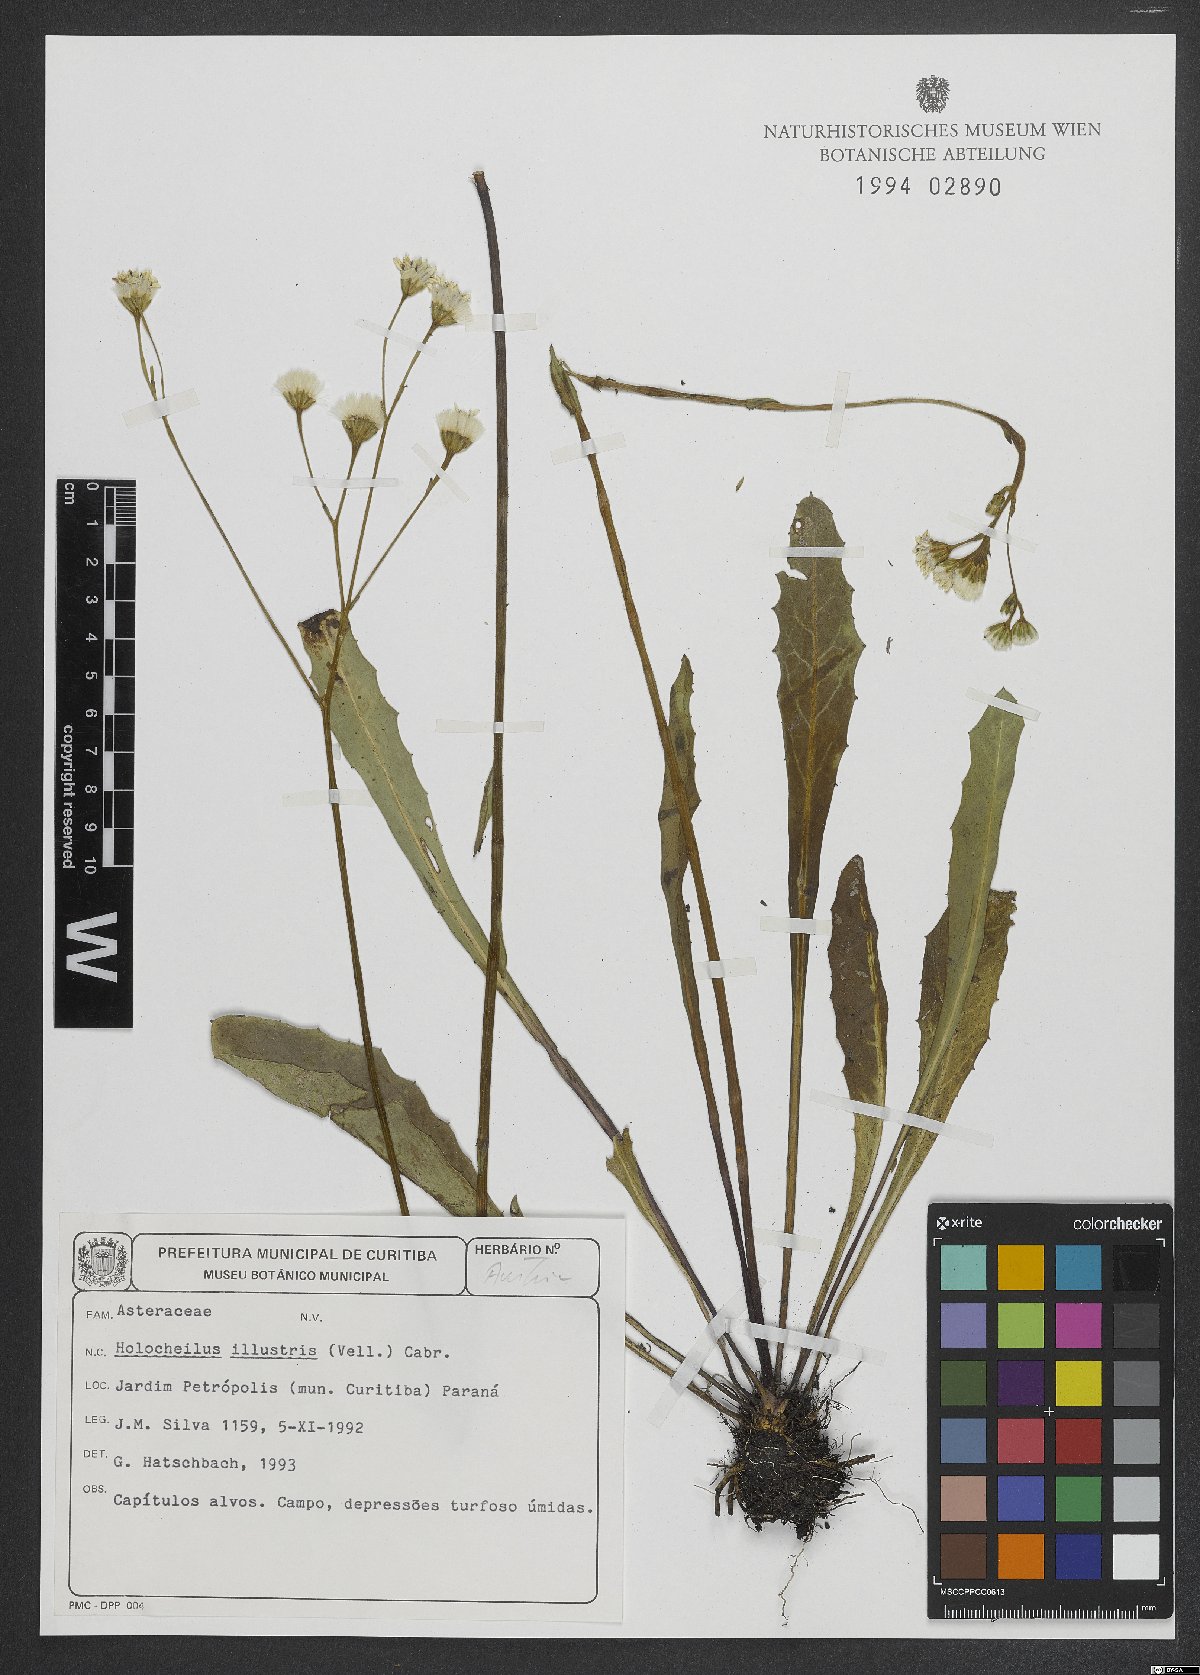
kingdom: Plantae
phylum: Tracheophyta
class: Magnoliopsida
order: Asterales
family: Asteraceae
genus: Holocheilus
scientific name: Holocheilus illustris
